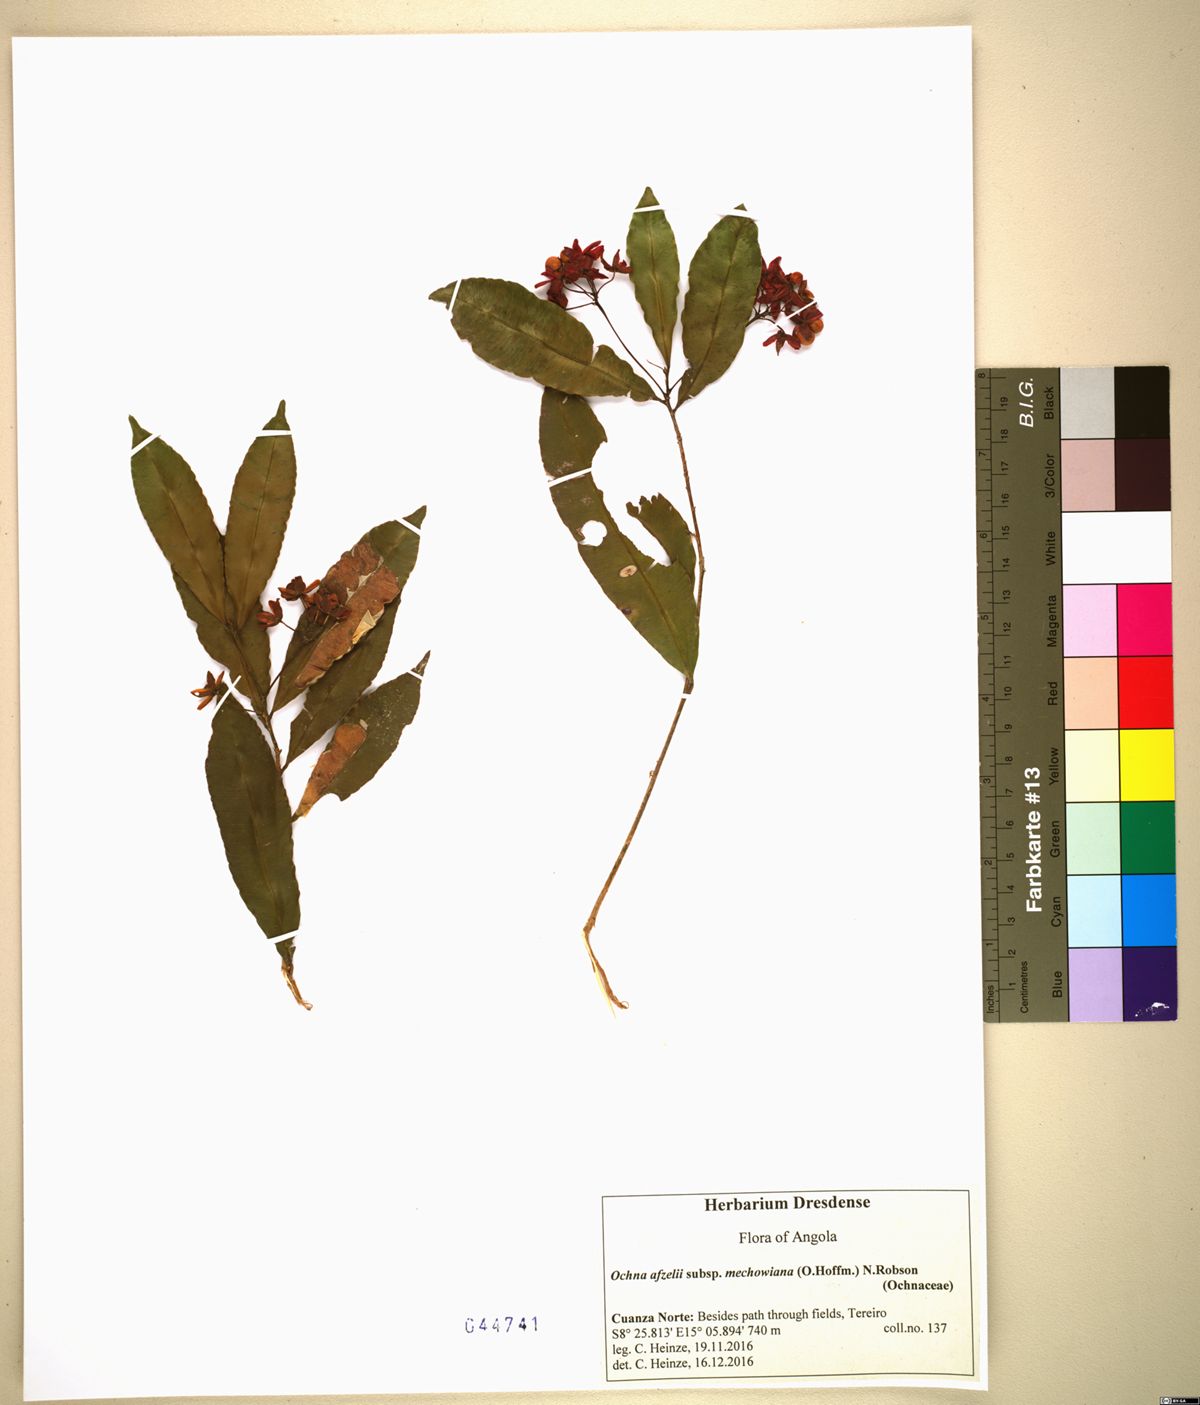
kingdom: Plantae
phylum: Tracheophyta
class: Magnoliopsida
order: Malpighiales
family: Ochnaceae
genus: Rhabdophyllum
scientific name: Rhabdophyllum welwitschii
